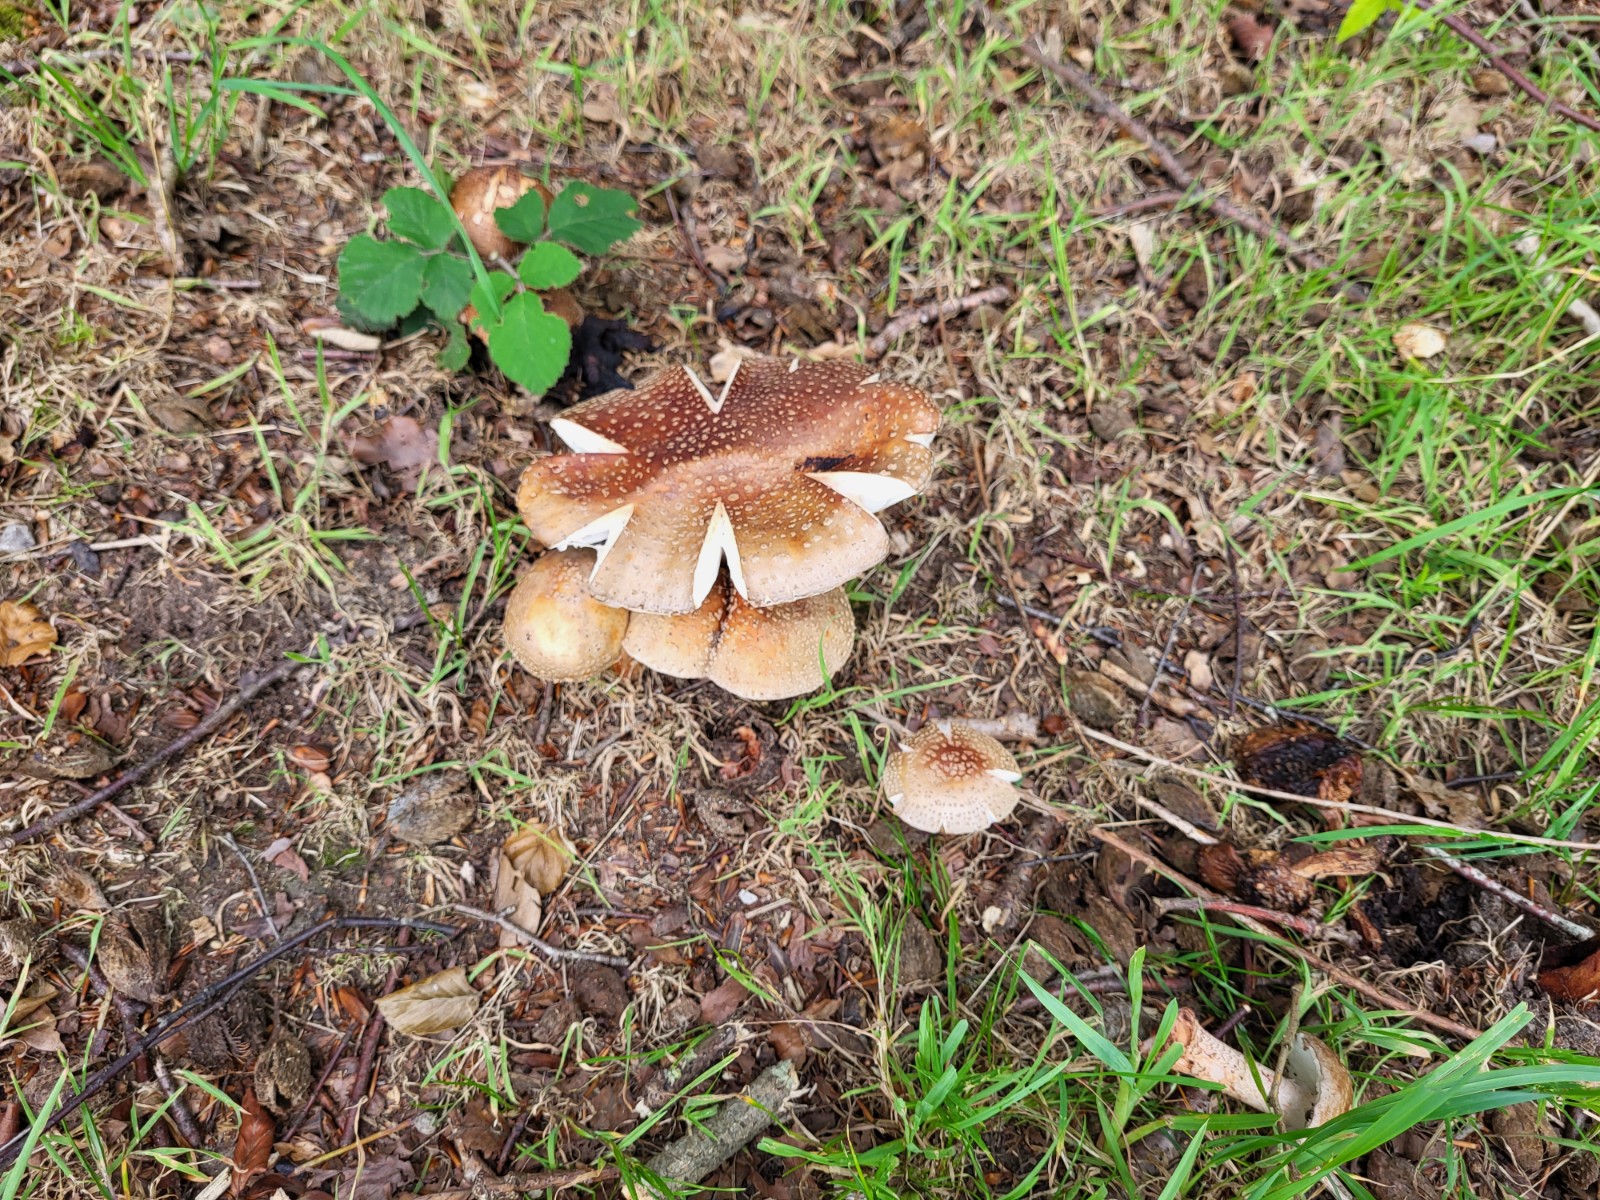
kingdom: Fungi
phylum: Basidiomycota
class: Agaricomycetes
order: Agaricales
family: Amanitaceae
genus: Amanita
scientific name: Amanita rubescens
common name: rødmende fluesvamp
